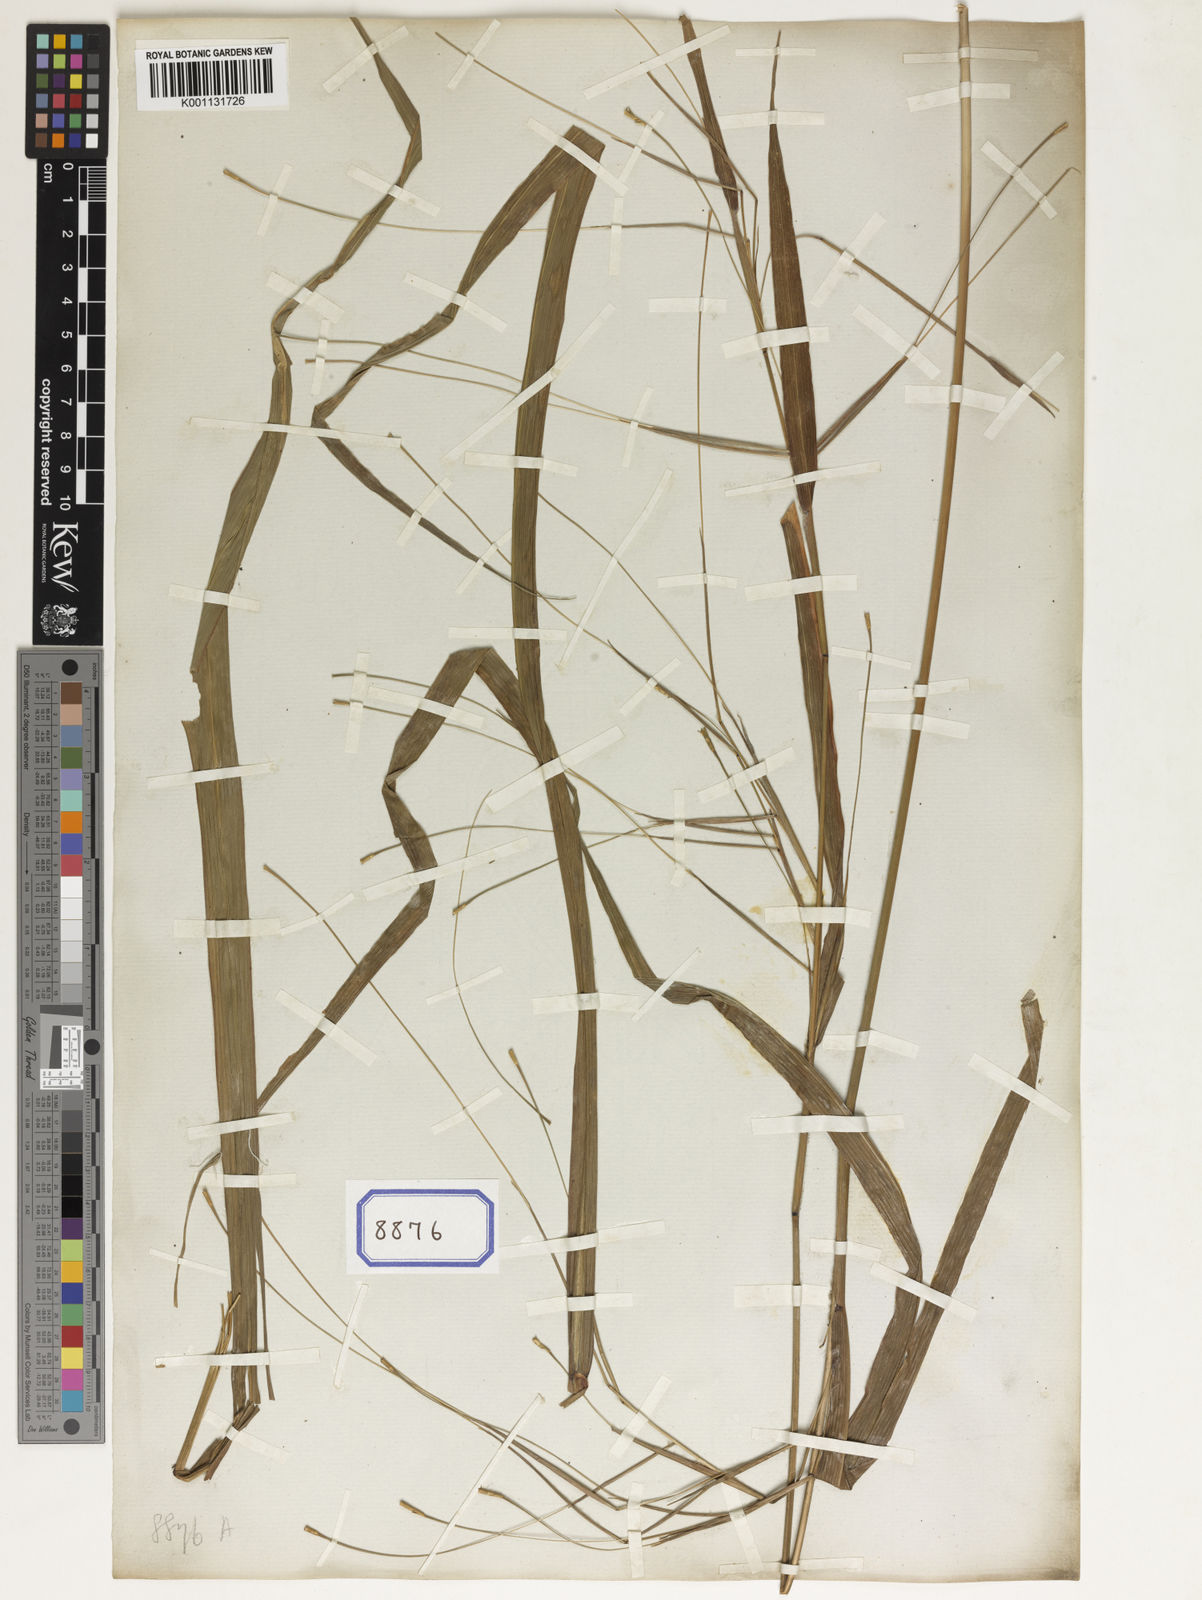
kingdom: Plantae
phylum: Tracheophyta
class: Liliopsida
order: Poales
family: Poaceae
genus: Rottboellia
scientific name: Rottboellia
